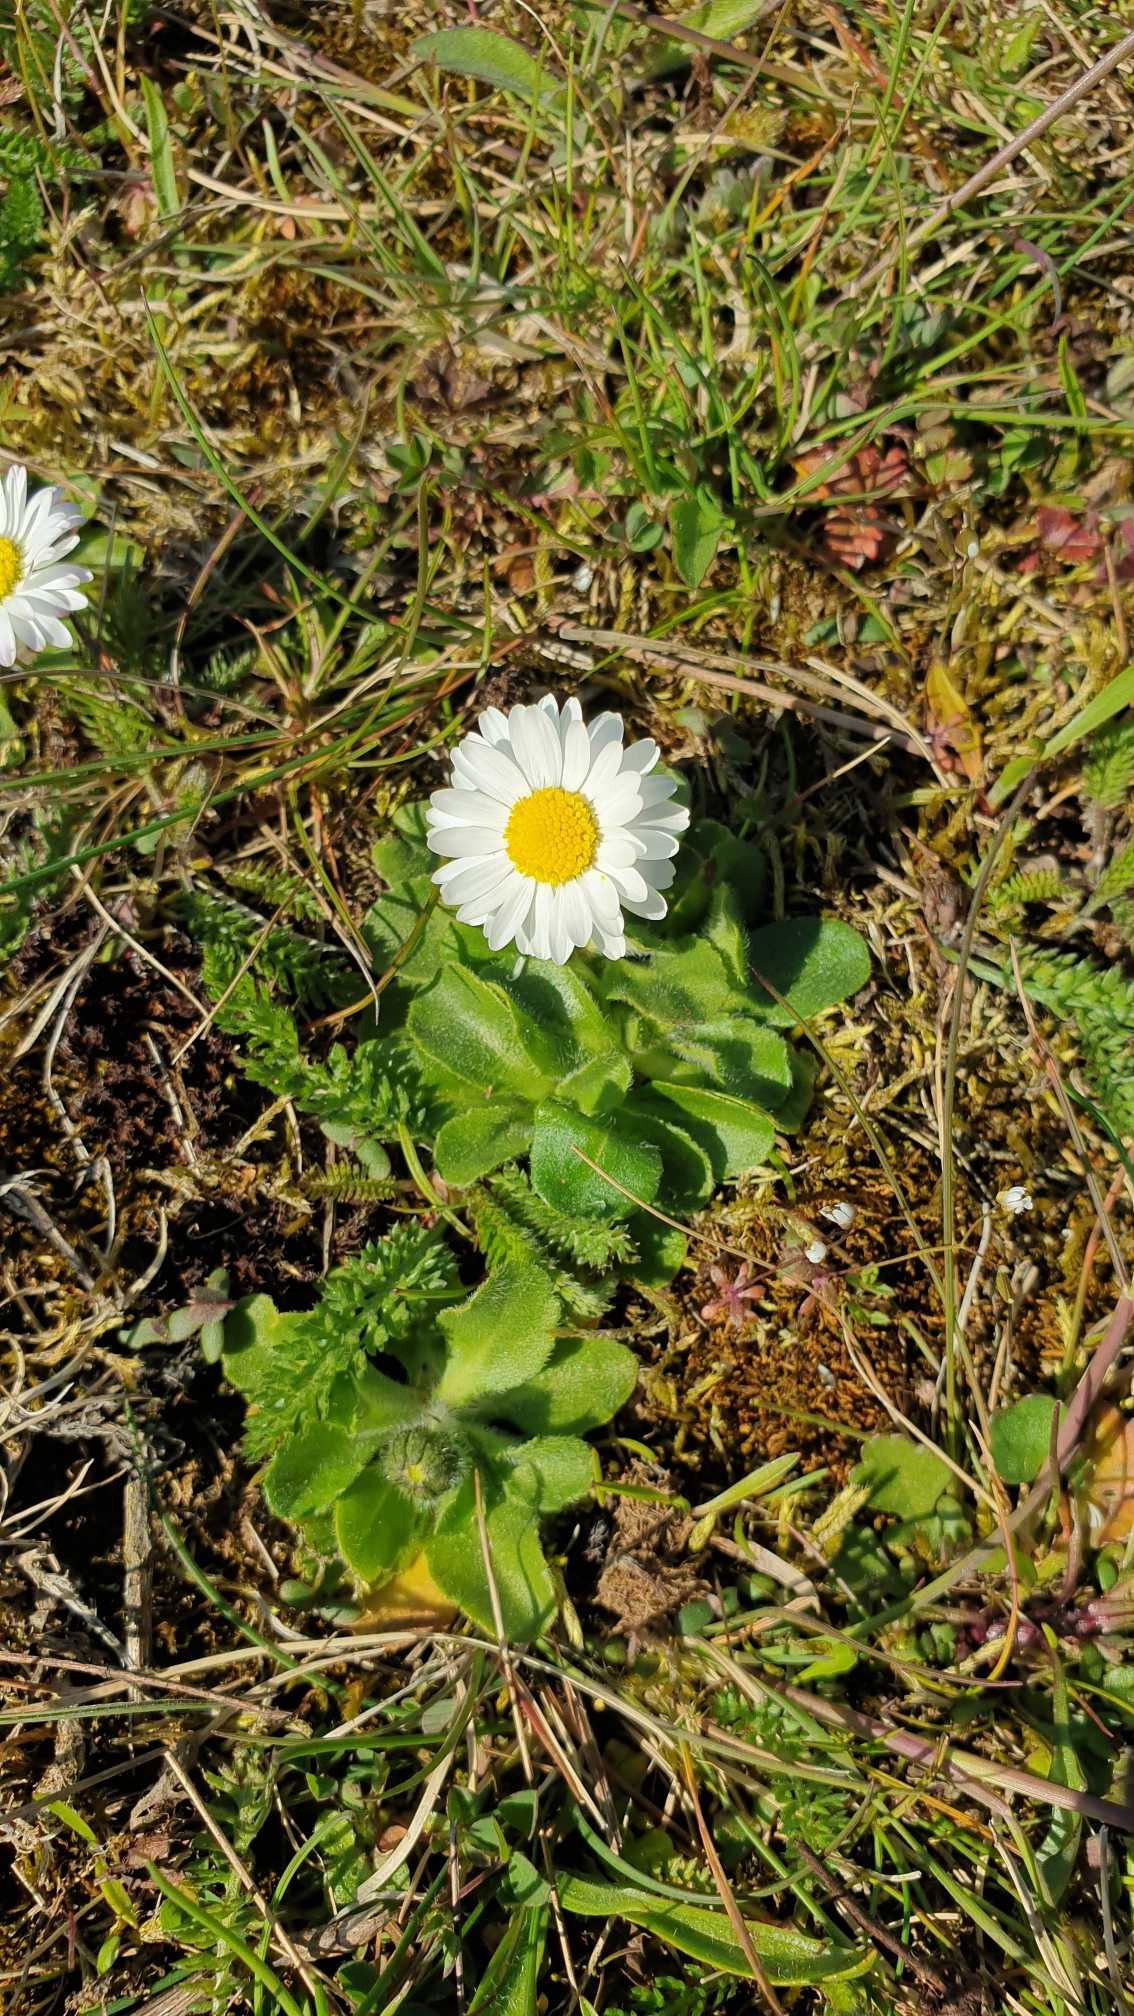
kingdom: Plantae
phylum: Tracheophyta
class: Magnoliopsida
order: Asterales
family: Asteraceae
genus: Bellis
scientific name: Bellis perennis
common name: Tusindfryd
